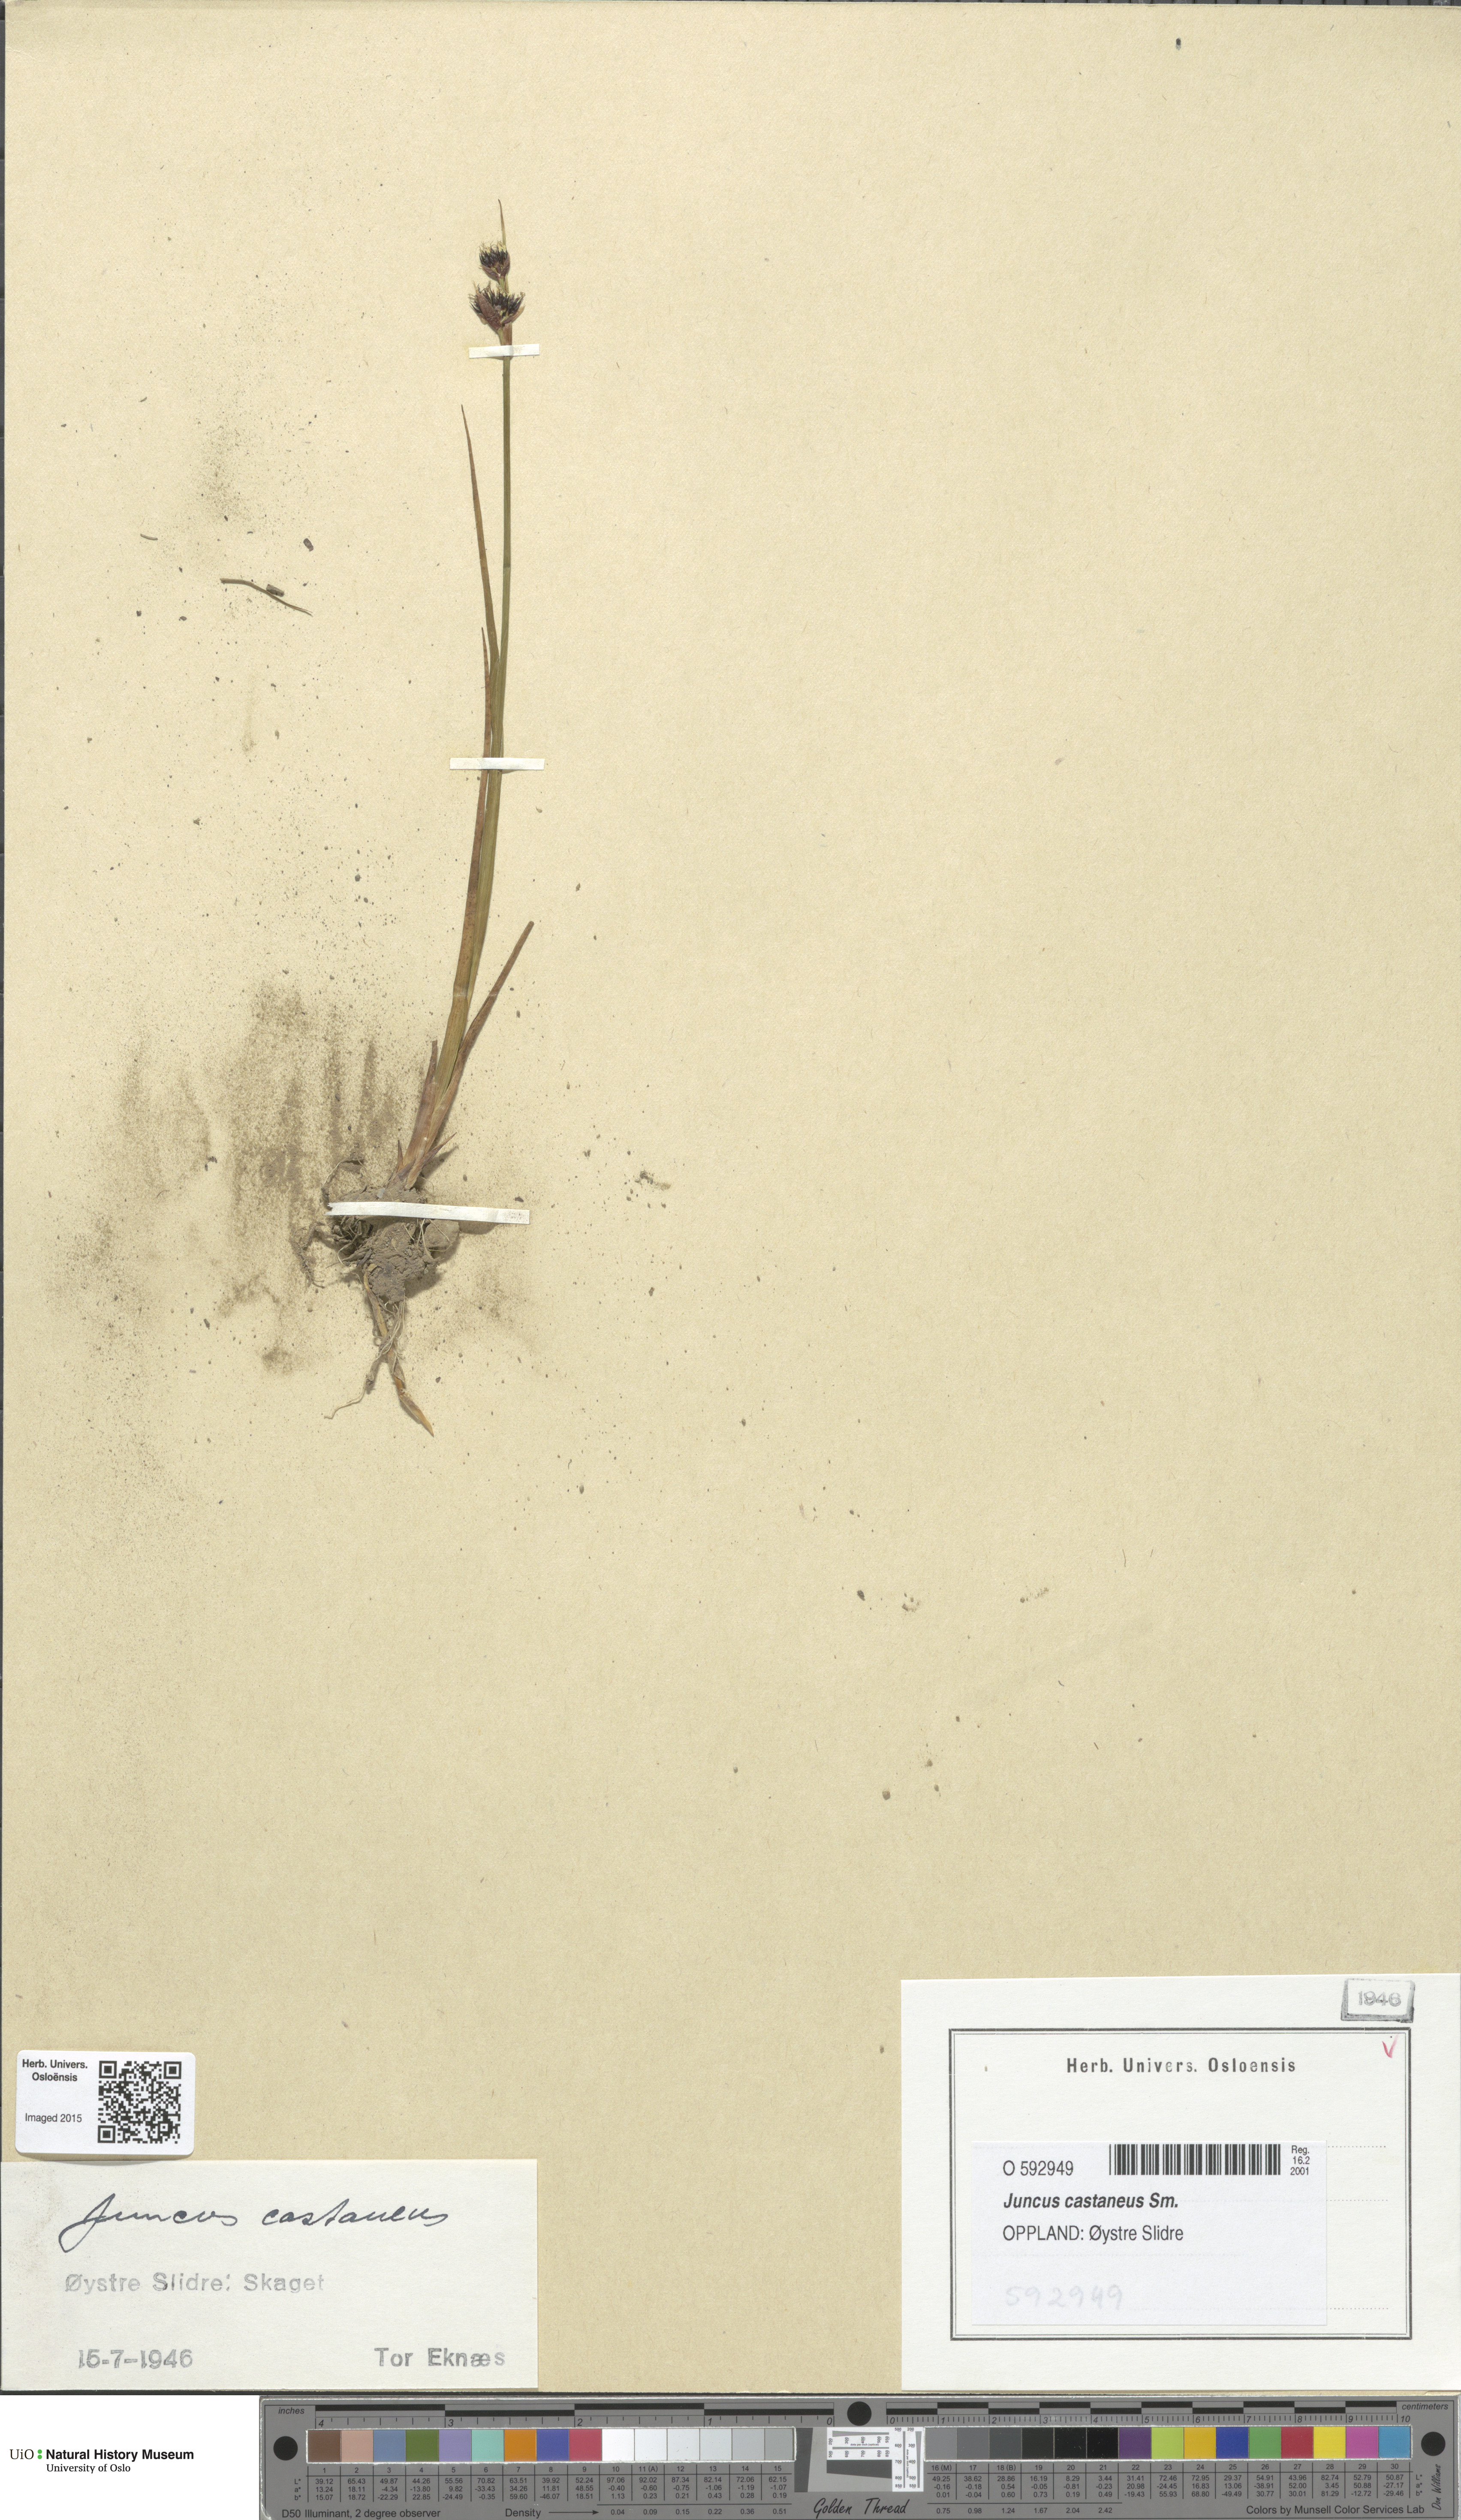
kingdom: Plantae
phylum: Tracheophyta
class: Liliopsida
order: Poales
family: Juncaceae
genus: Juncus
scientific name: Juncus castaneus
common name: Chestnut rush
